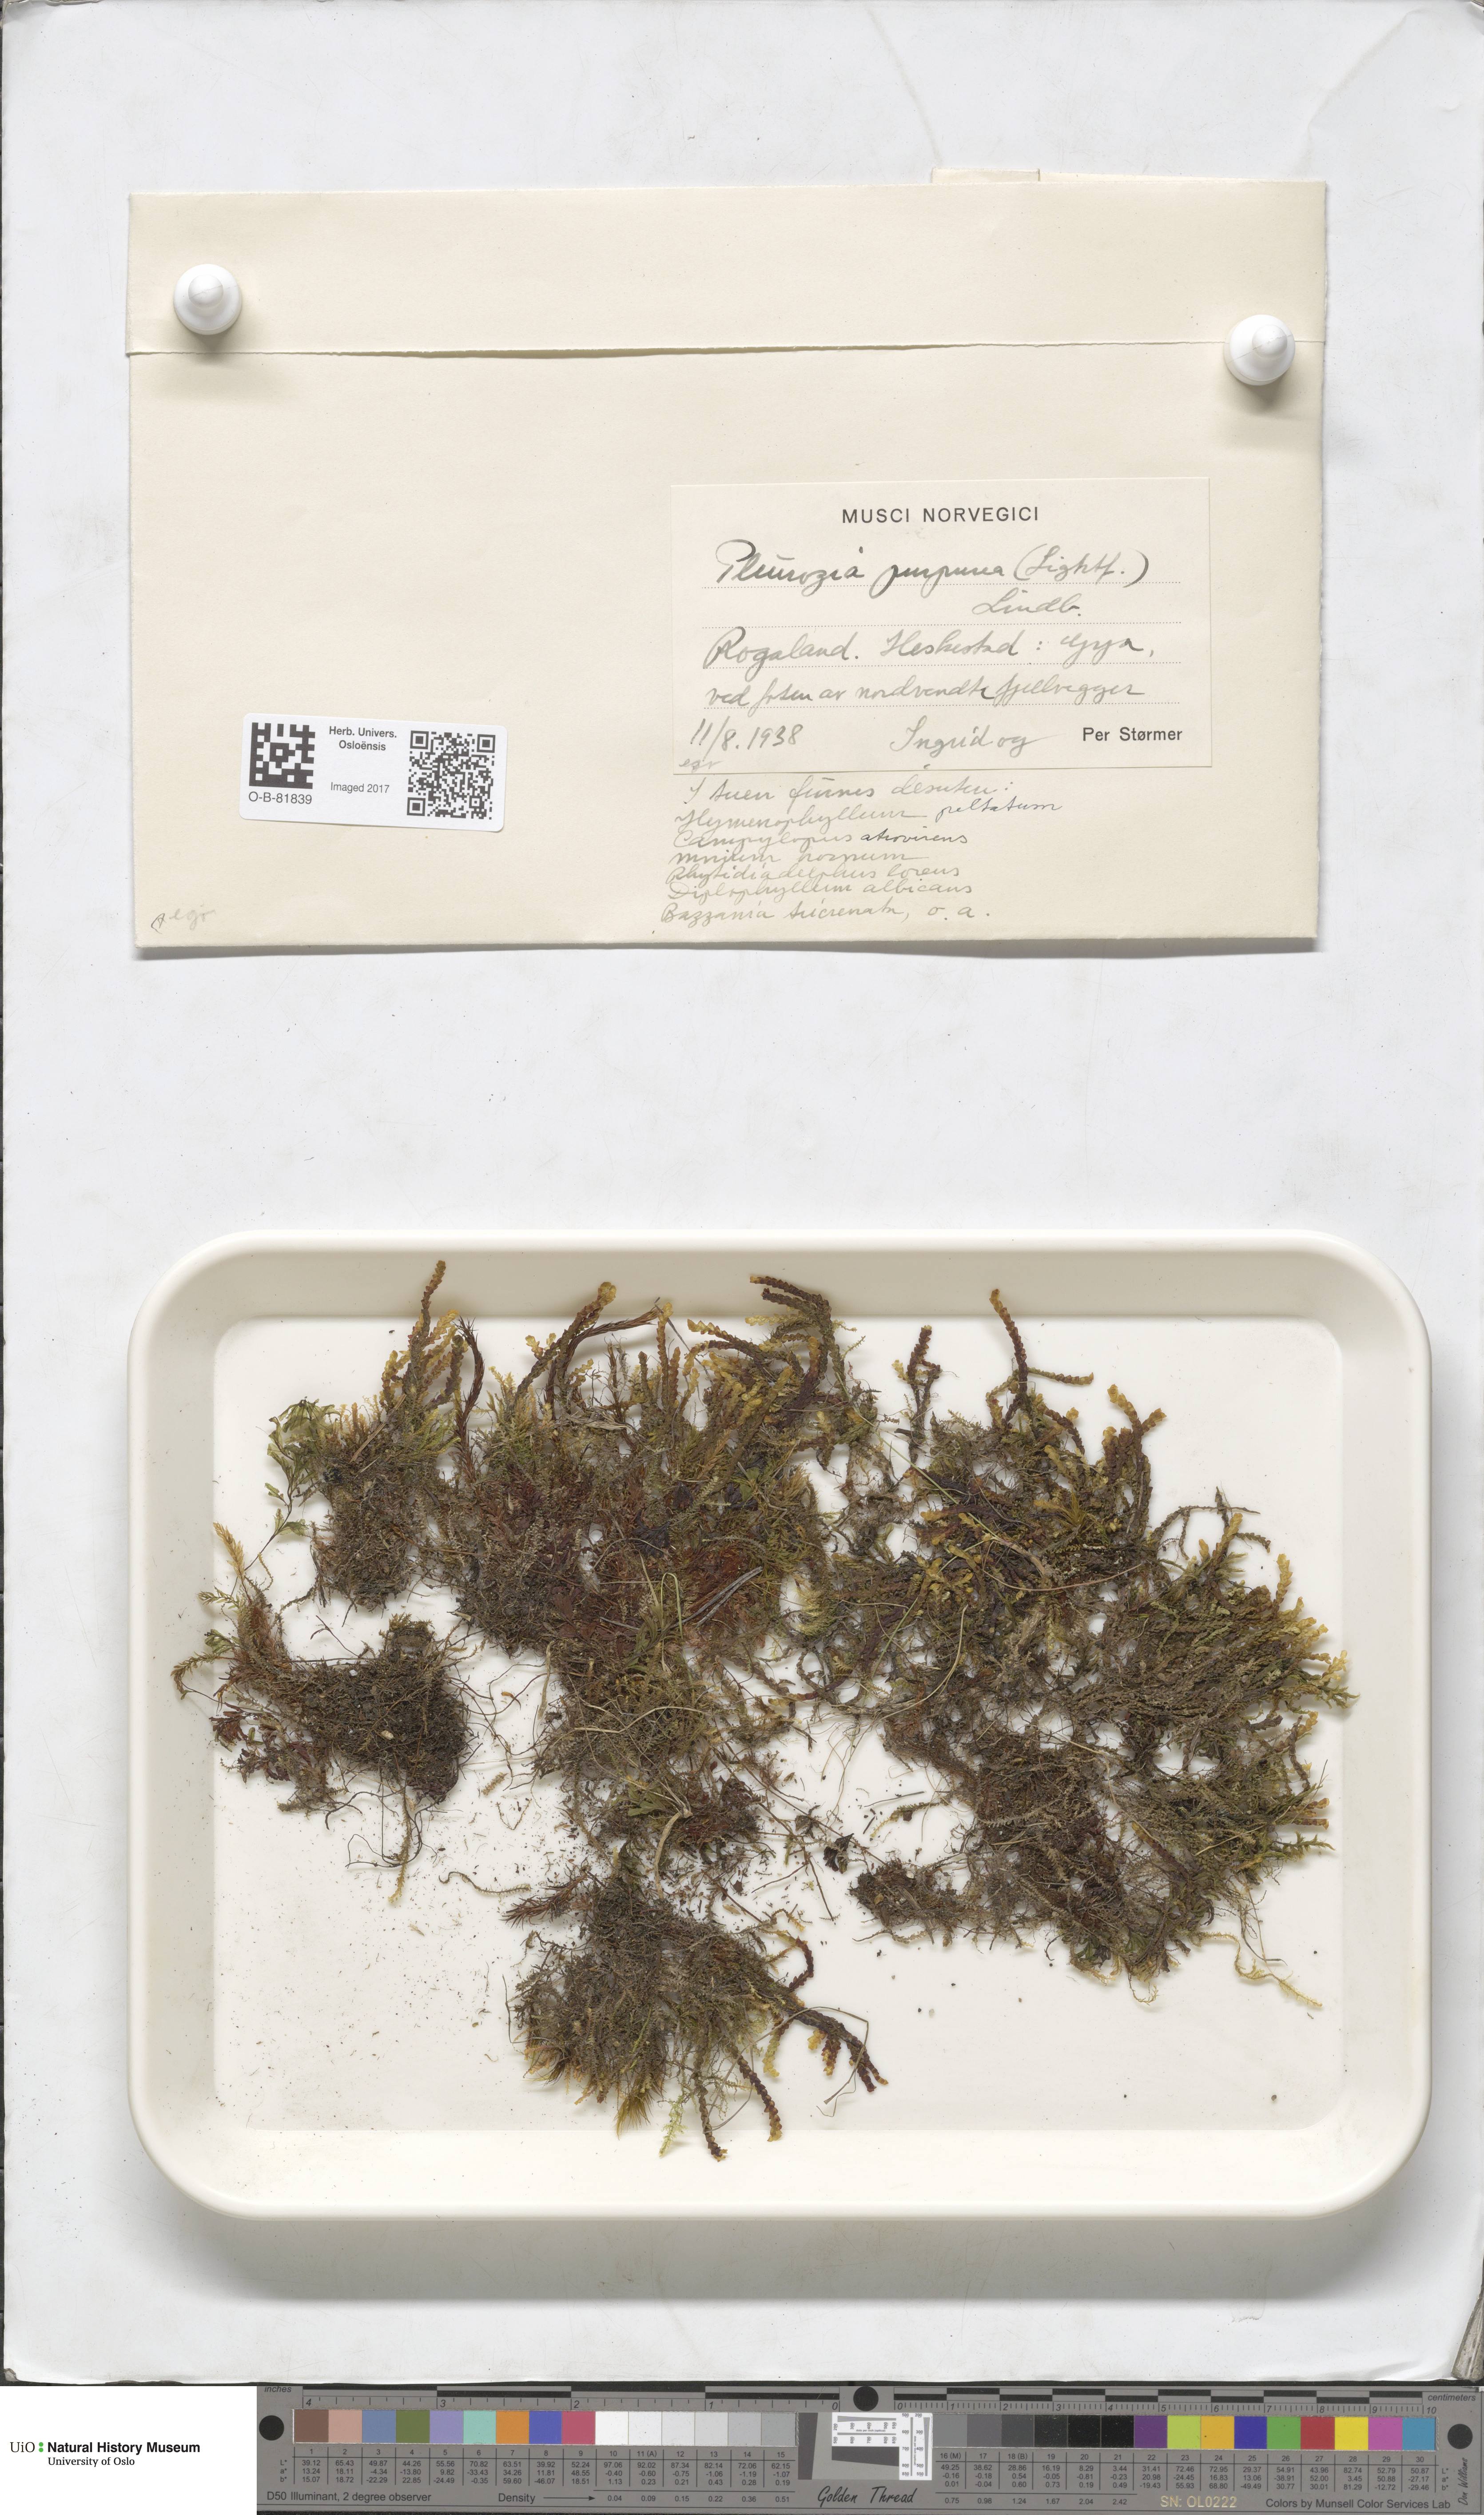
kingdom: Plantae
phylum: Marchantiophyta
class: Jungermanniopsida
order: Pleuroziales
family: Pleuroziaceae
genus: Pleurozia
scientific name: Pleurozia purpurea
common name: Purple spoonwort
